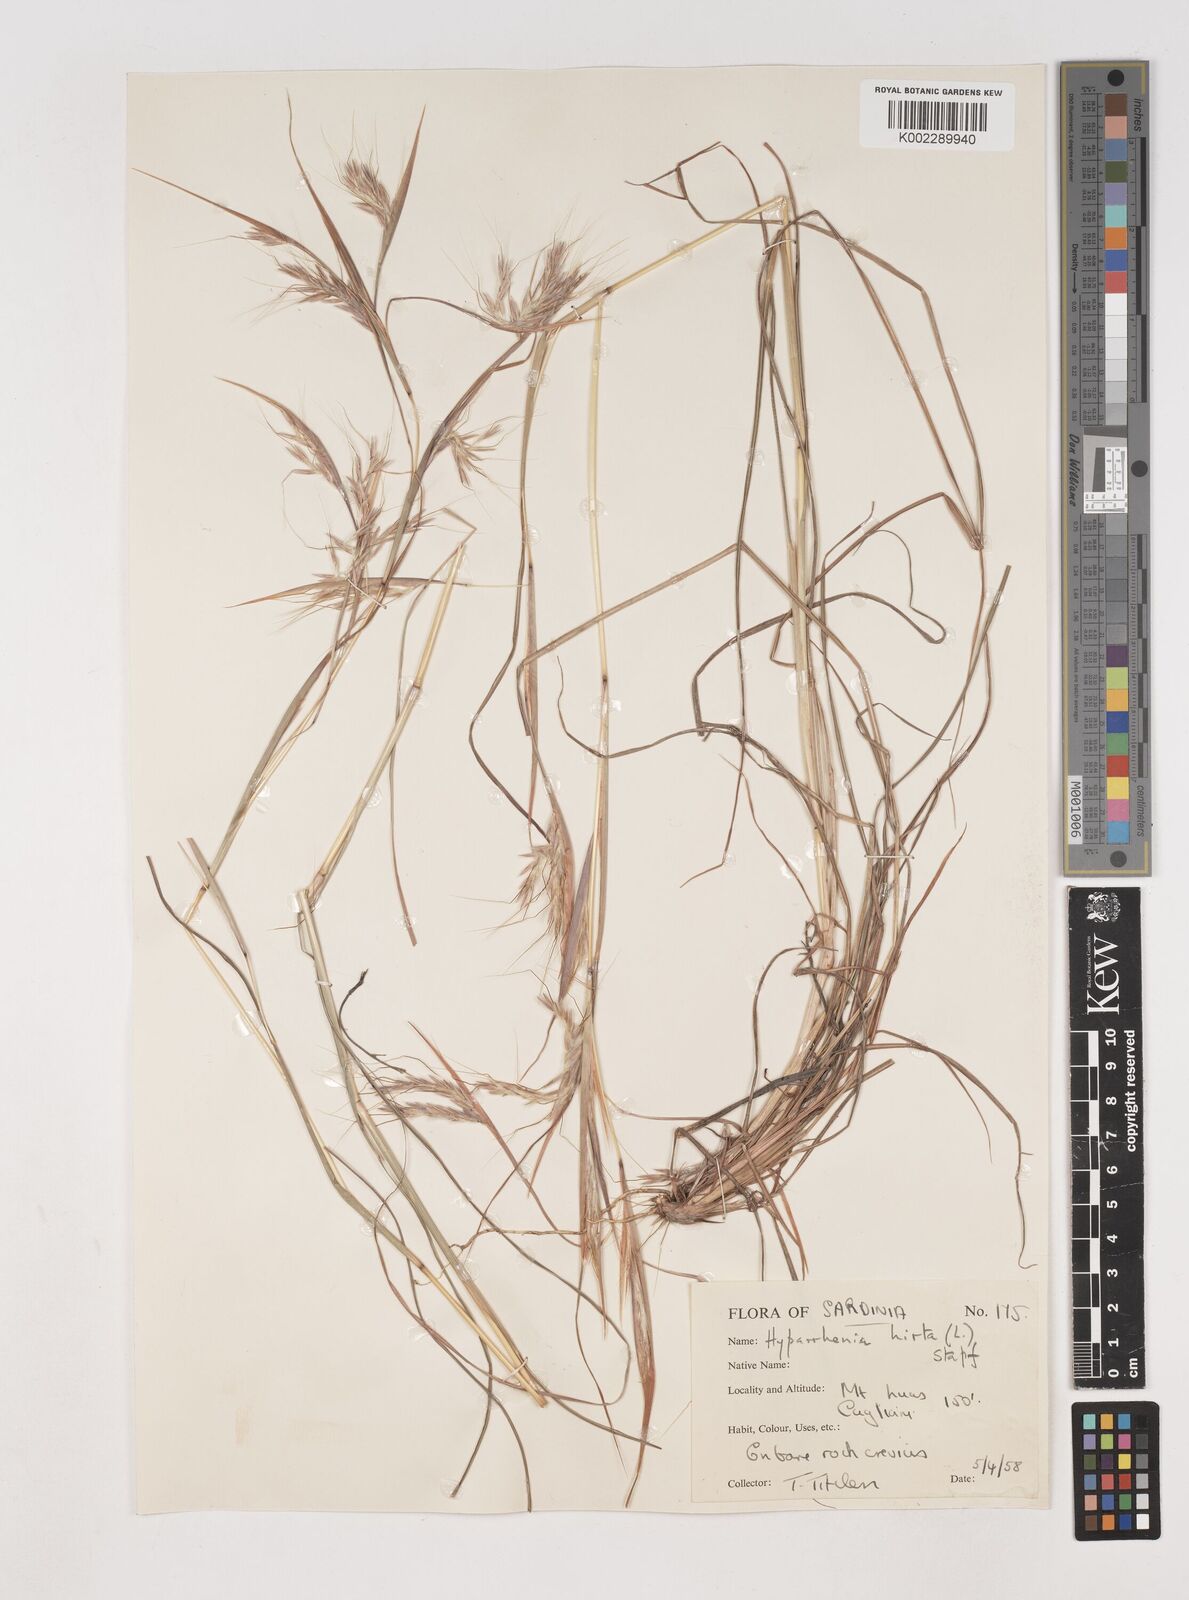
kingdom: Plantae
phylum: Tracheophyta
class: Liliopsida
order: Poales
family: Poaceae
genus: Hyparrhenia
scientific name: Hyparrhenia hirta
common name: Thatching grass
